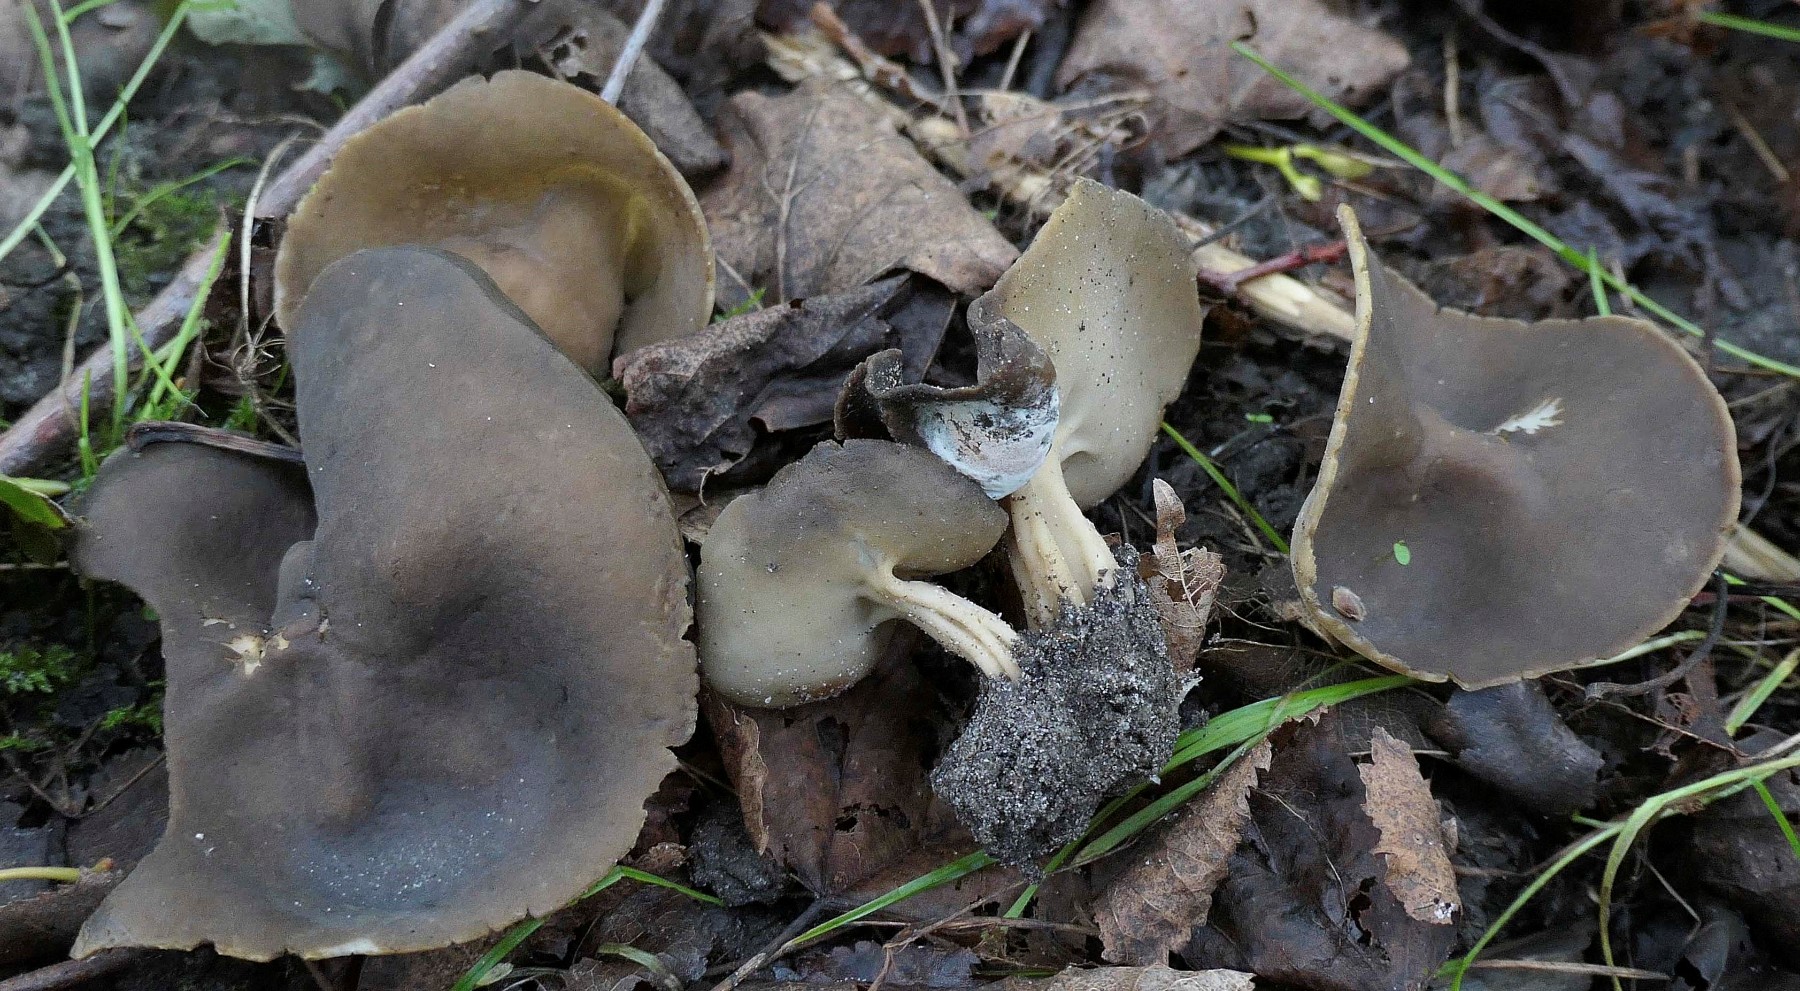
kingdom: Fungi
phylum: Ascomycota
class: Sordariomycetes
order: Hypocreales
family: Hypocreaceae
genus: Hypomyces
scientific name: Hypomyces cervinus
